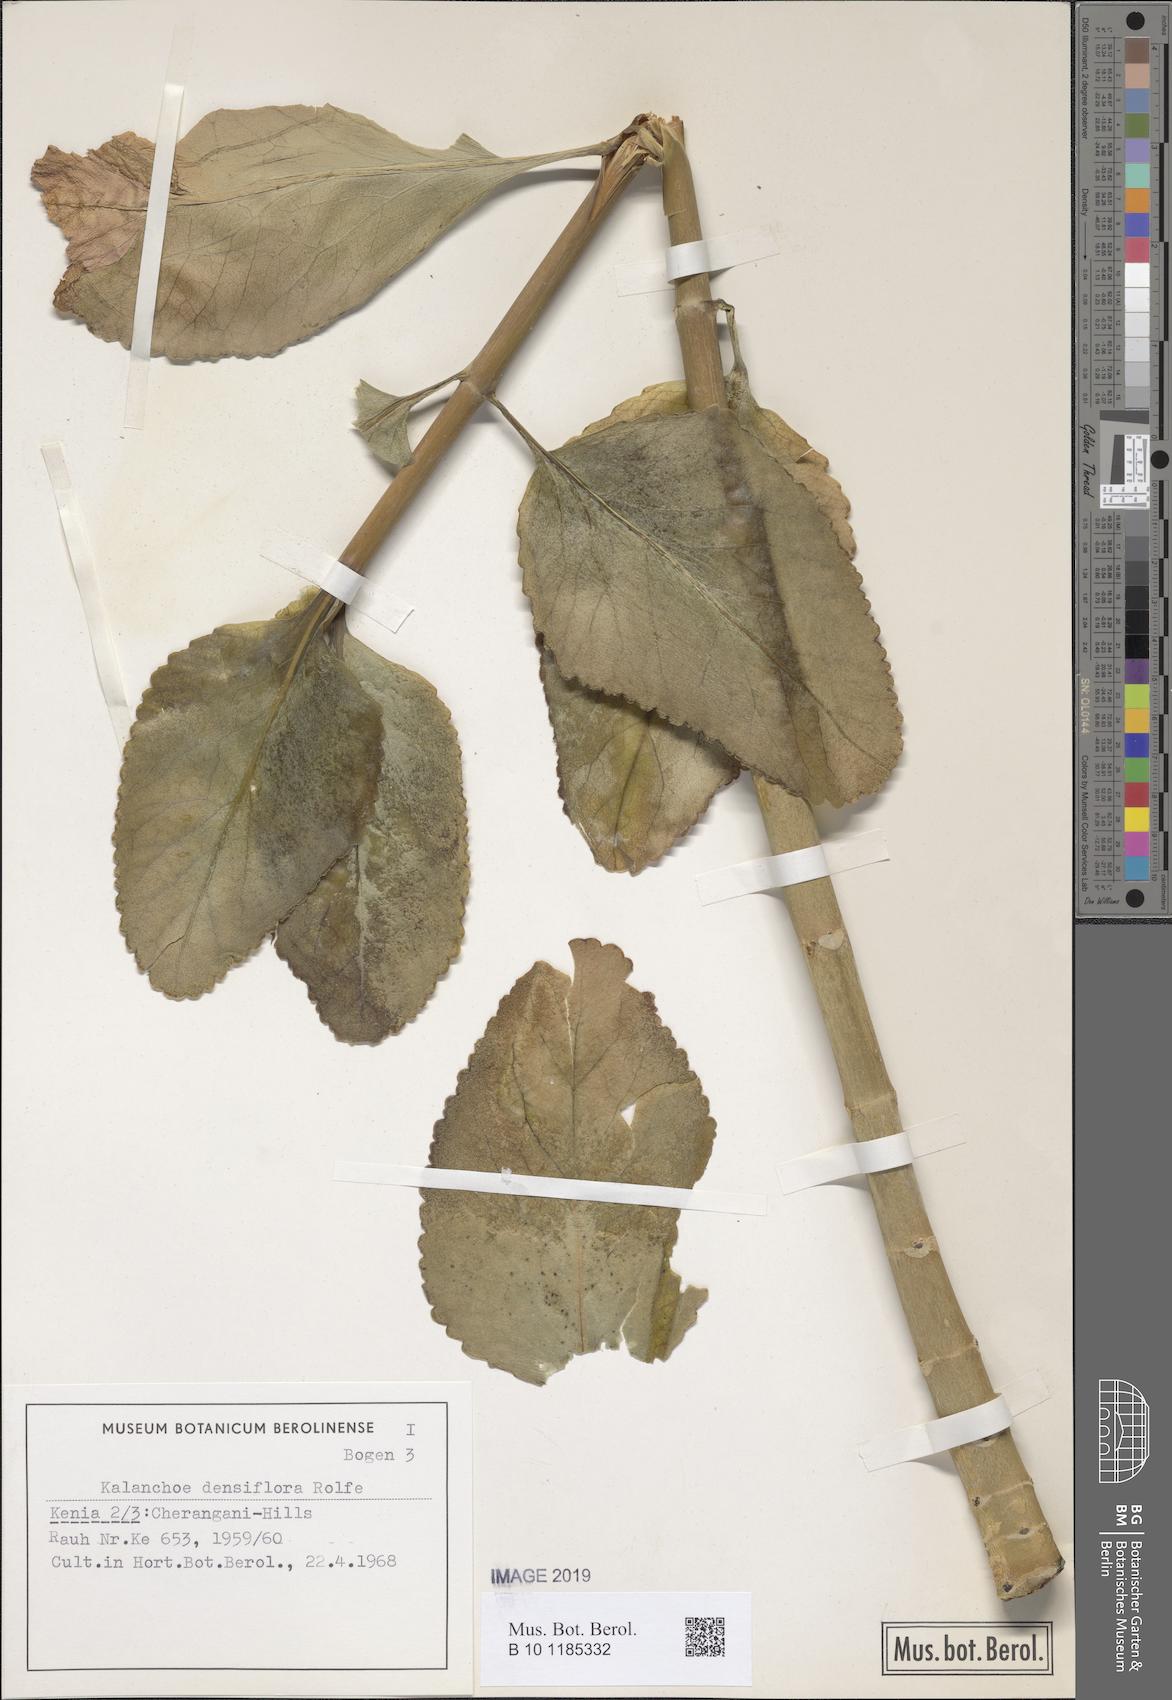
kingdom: Plantae
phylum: Tracheophyta
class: Magnoliopsida
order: Saxifragales
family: Crassulaceae
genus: Kalanchoe
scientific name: Kalanchoe densiflora
